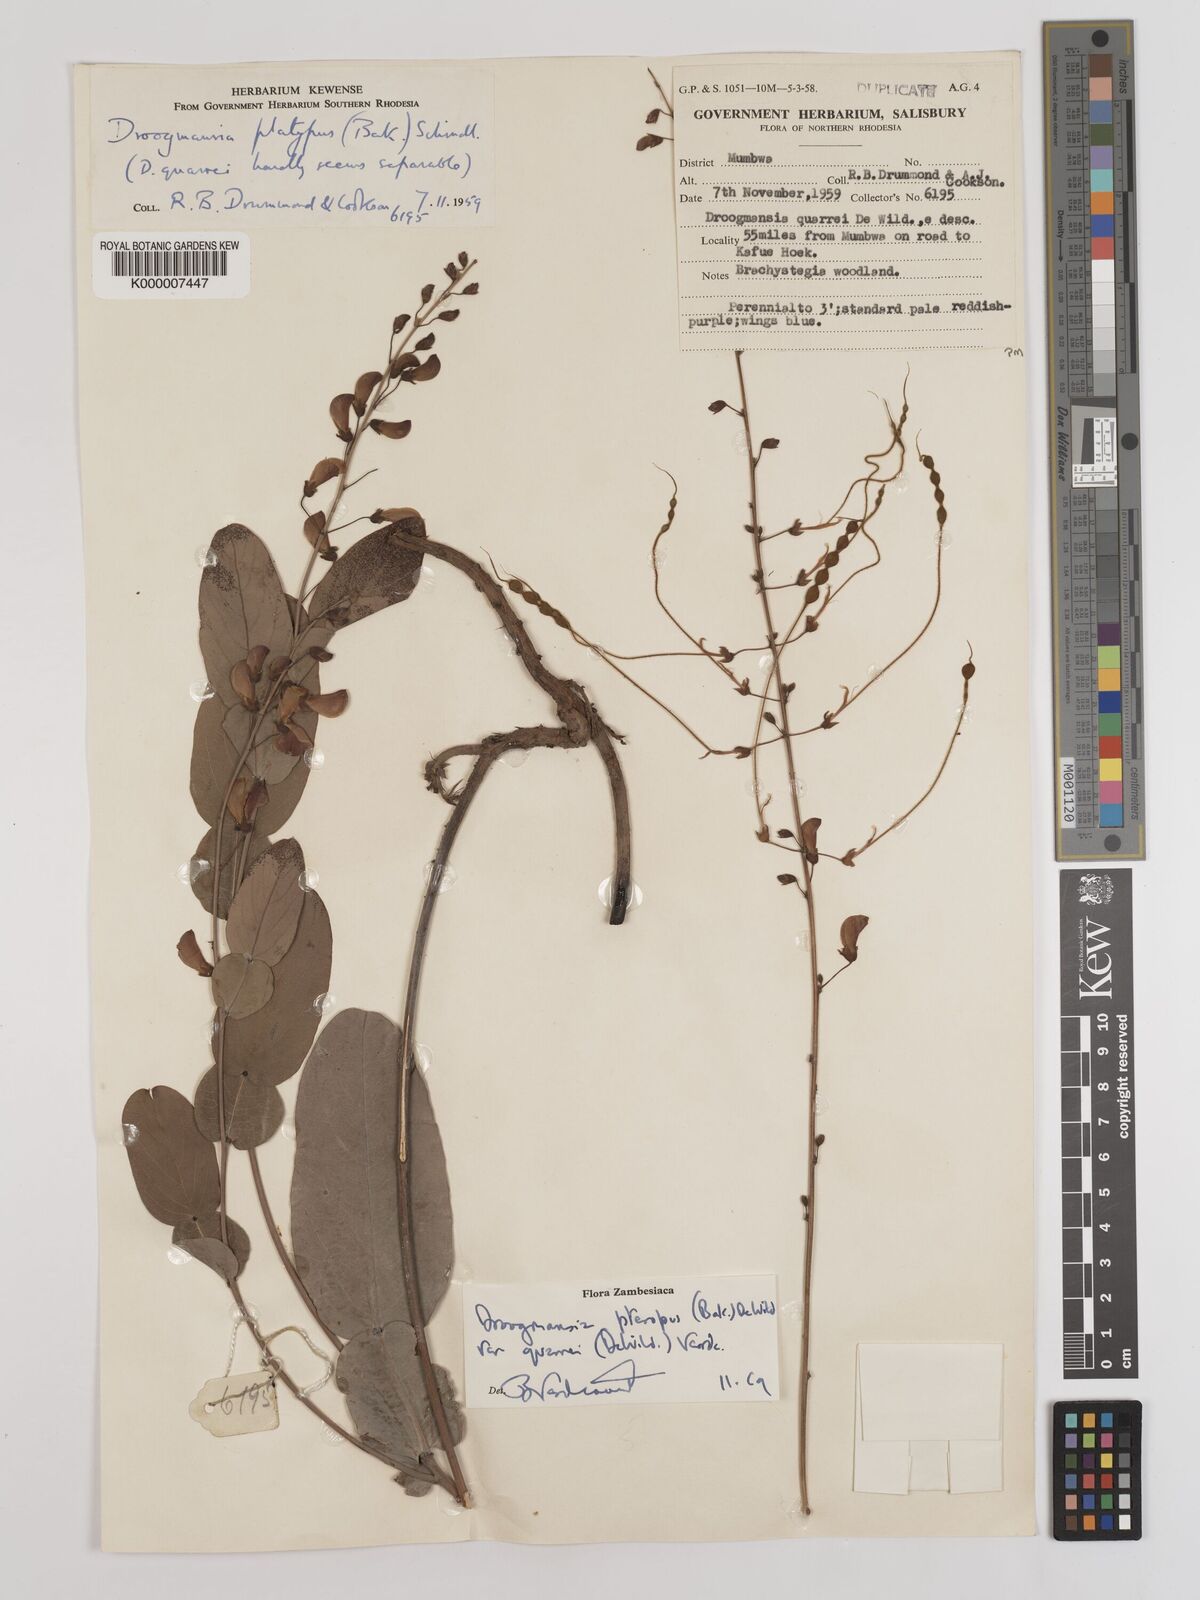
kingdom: Plantae
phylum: Tracheophyta
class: Magnoliopsida
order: Fabales
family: Fabaceae
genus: Droogmansia
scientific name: Droogmansia pteropus
